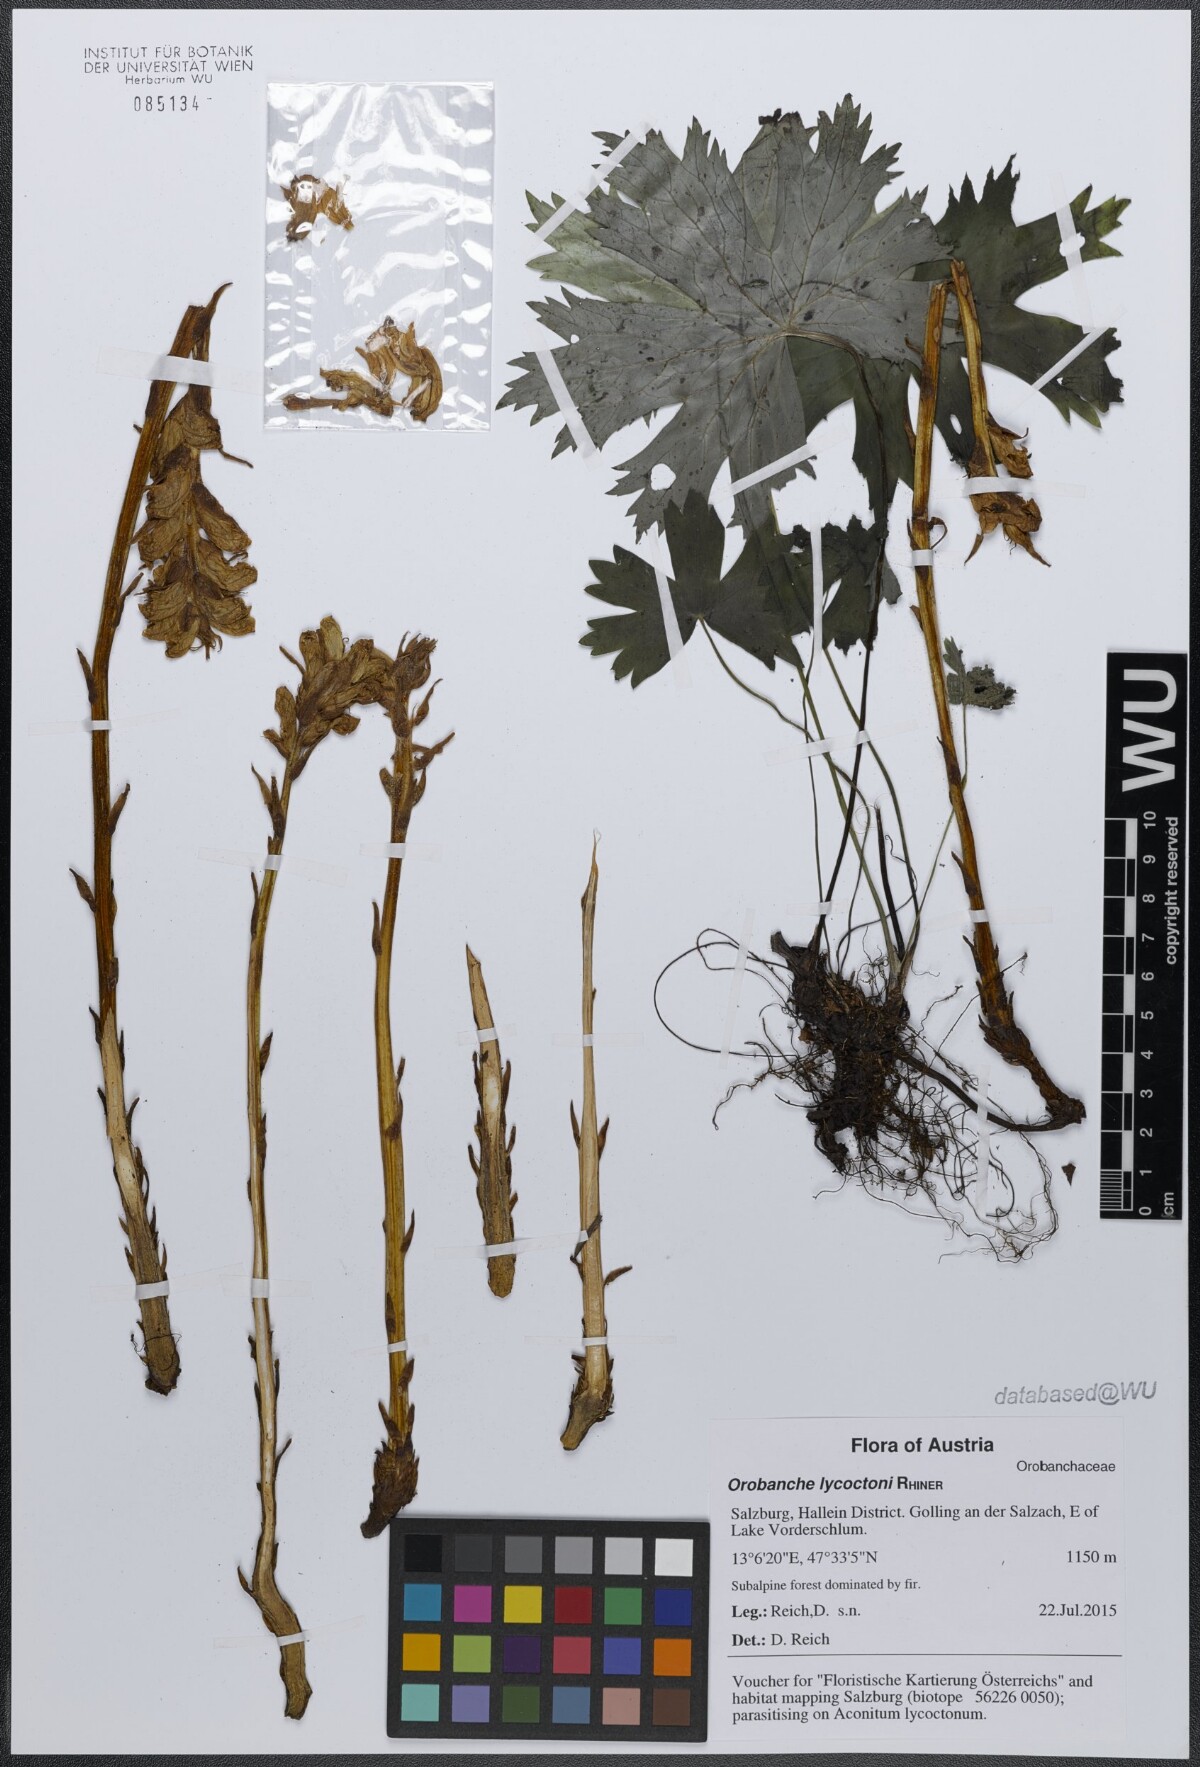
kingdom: Plantae
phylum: Tracheophyta
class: Magnoliopsida
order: Lamiales
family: Orobanchaceae
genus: Orobanche
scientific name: Orobanche lycoctoni
